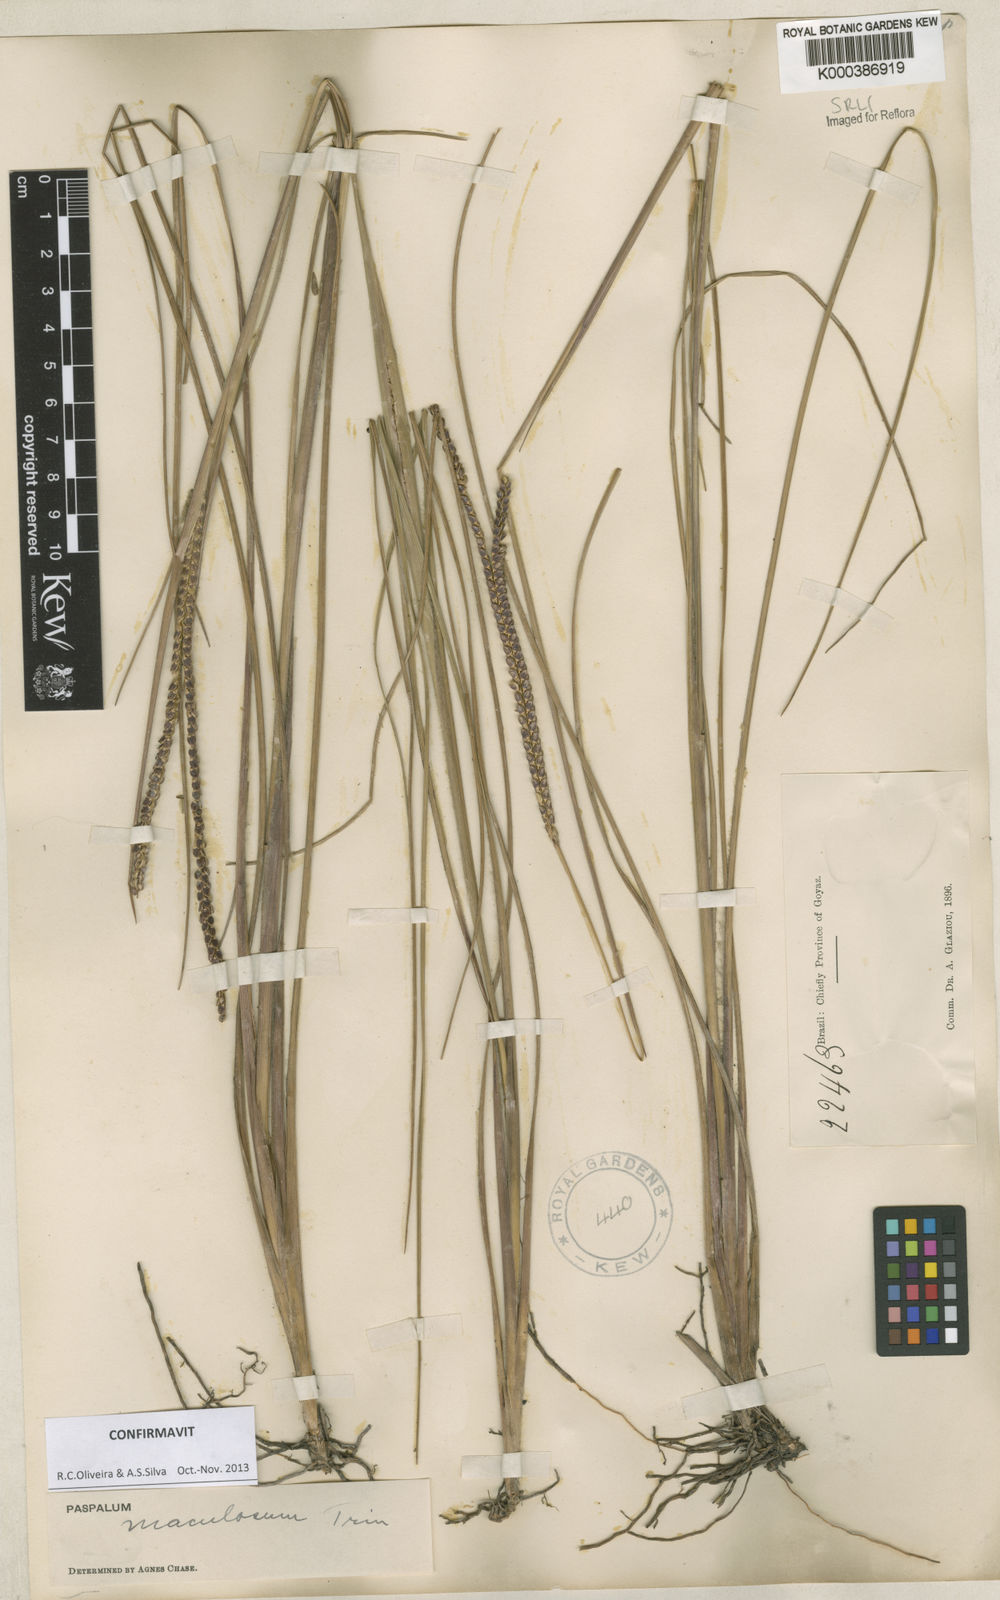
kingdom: Plantae
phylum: Tracheophyta
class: Liliopsida
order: Poales
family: Poaceae
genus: Paspalum
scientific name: Paspalum maculosum
